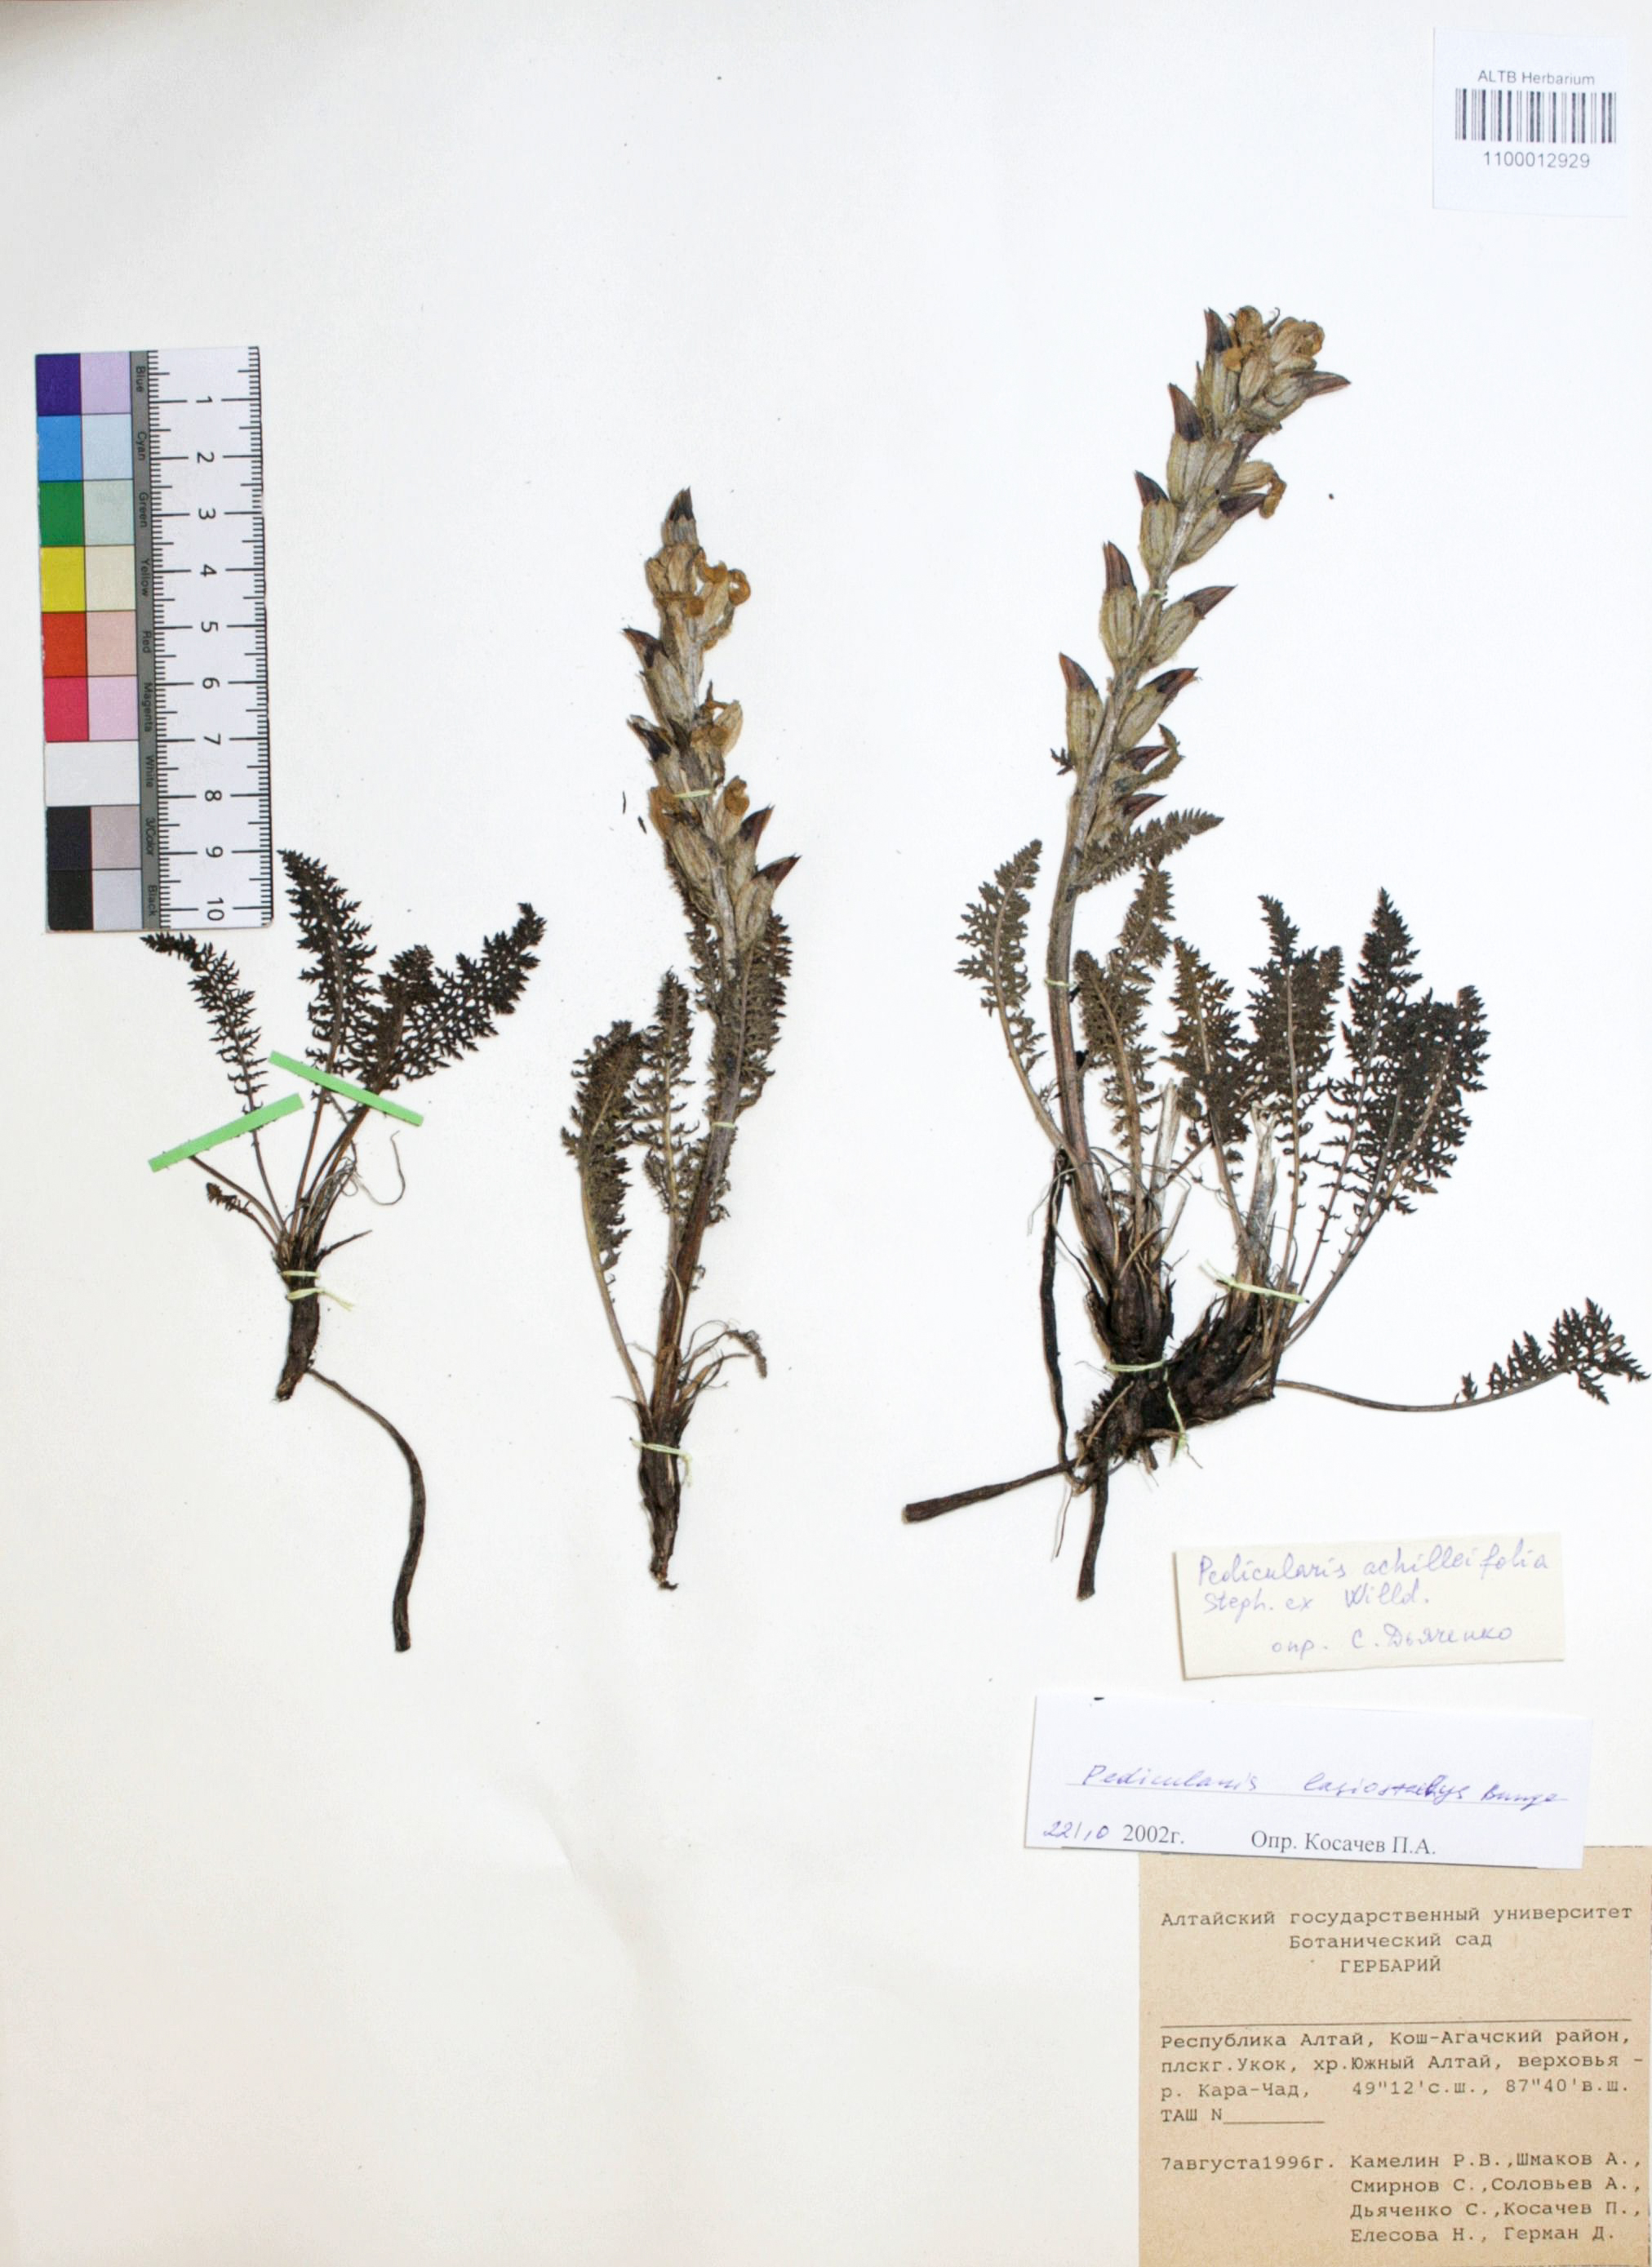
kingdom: Plantae
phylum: Tracheophyta
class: Magnoliopsida
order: Lamiales
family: Orobanchaceae
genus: Pedicularis
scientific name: Pedicularis lasiostachys
